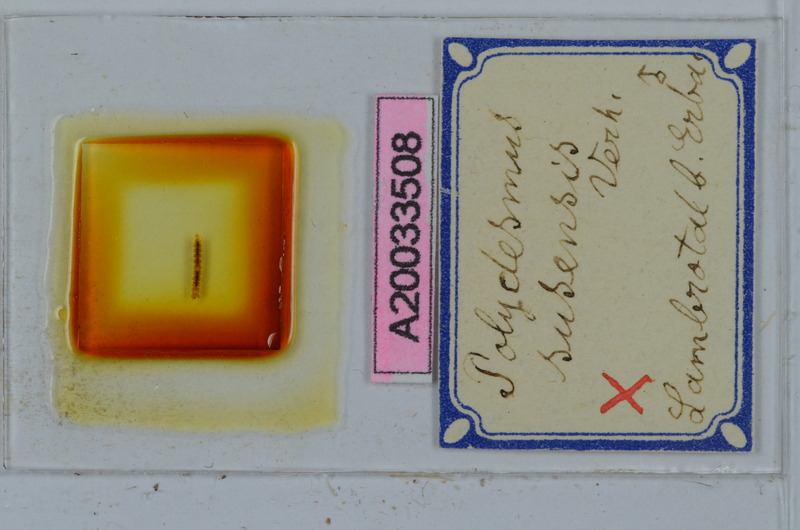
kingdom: Animalia
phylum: Arthropoda
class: Diplopoda
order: Polydesmida
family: Polydesmidae
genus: Polydesmus
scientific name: Polydesmus susensis
